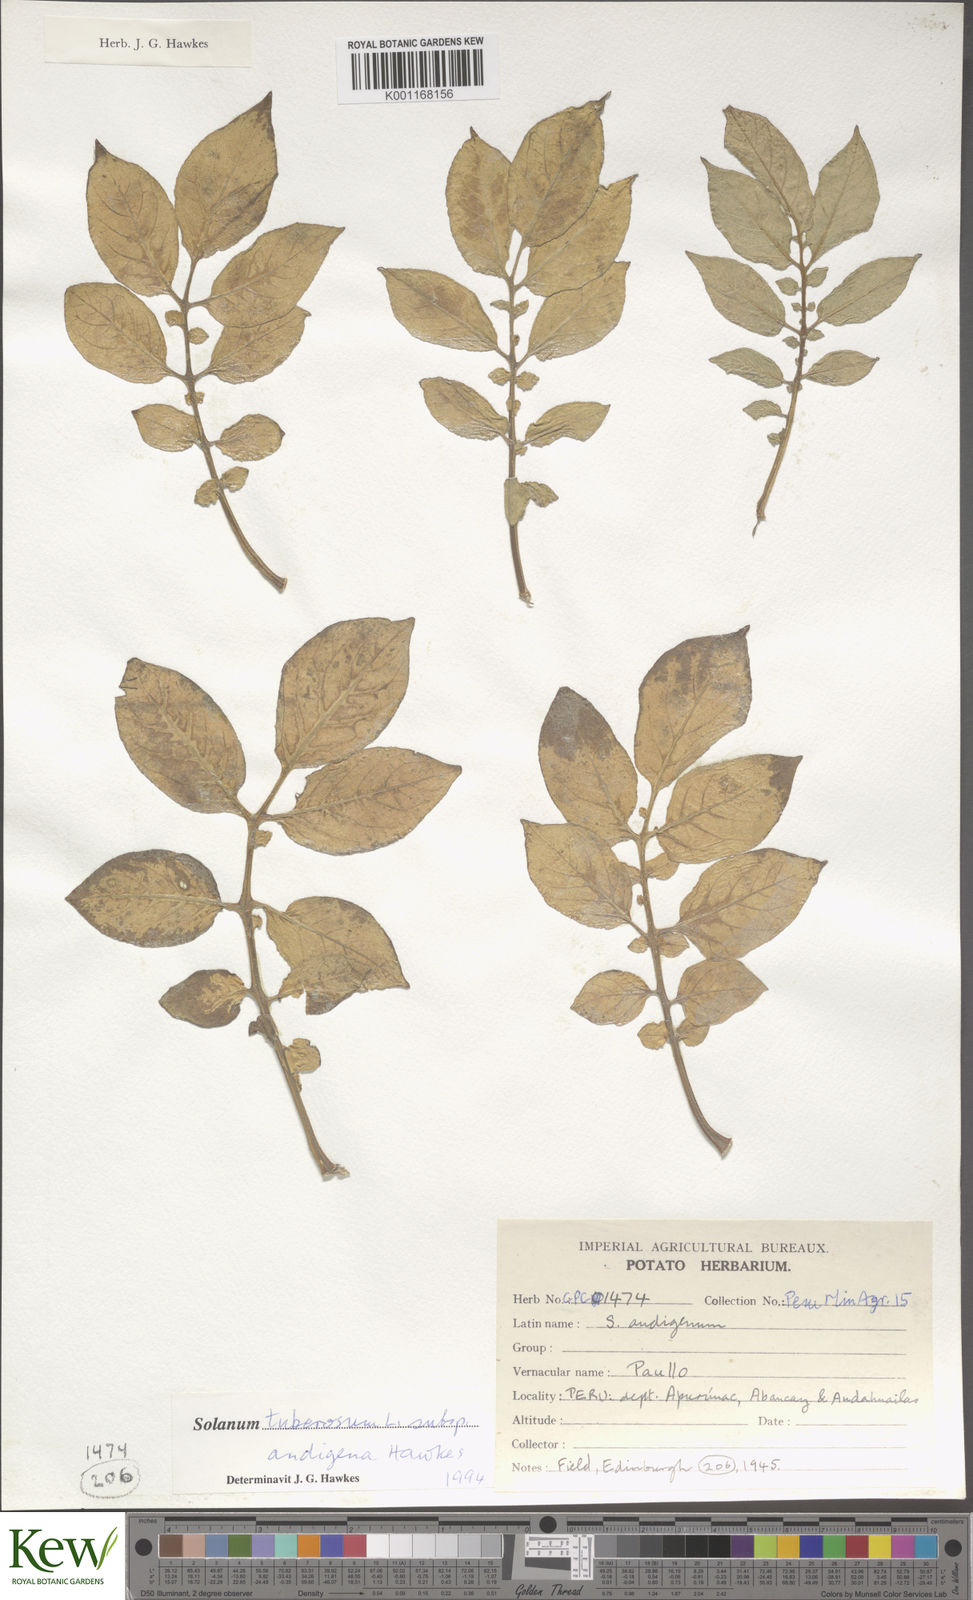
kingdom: Plantae
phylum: Tracheophyta
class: Magnoliopsida
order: Solanales
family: Solanaceae
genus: Solanum
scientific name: Solanum tuberosum
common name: Potato
